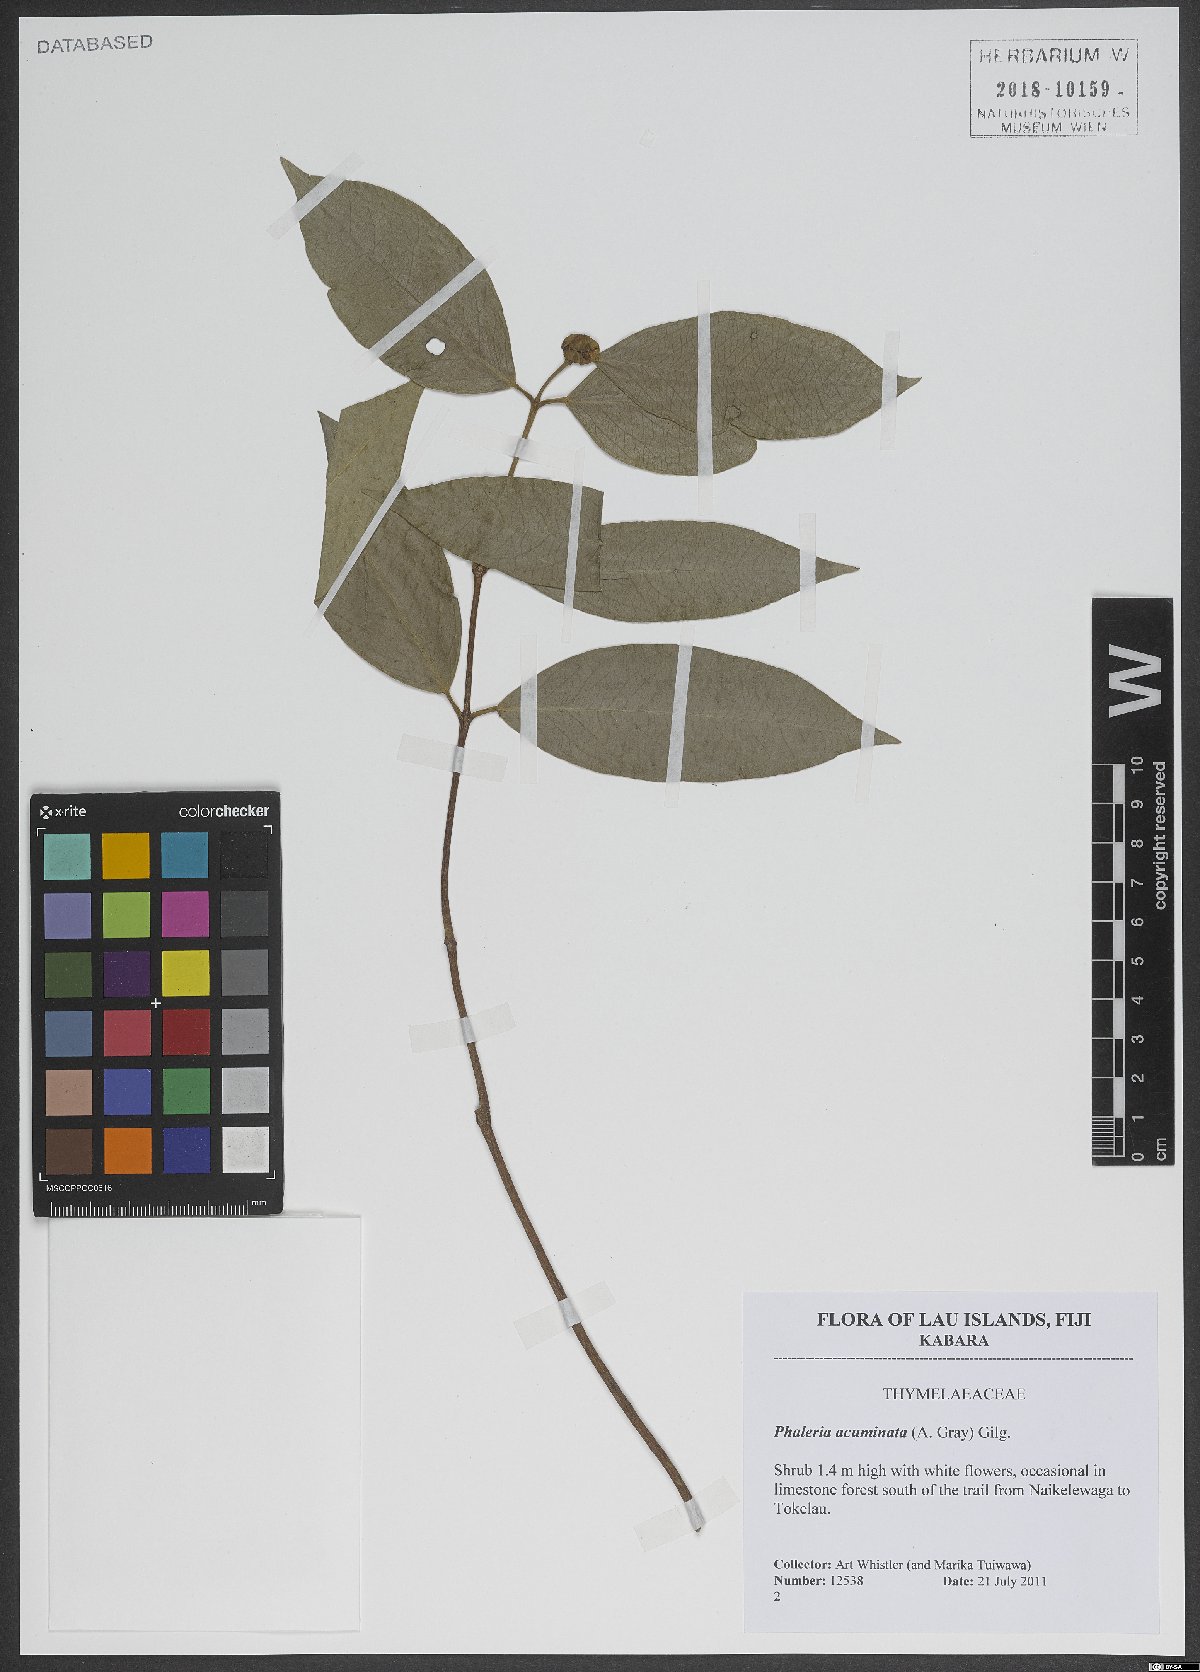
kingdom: Plantae
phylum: Tracheophyta
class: Magnoliopsida
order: Malvales
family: Thymelaeaceae
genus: Phaleria
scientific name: Phaleria acuminata
